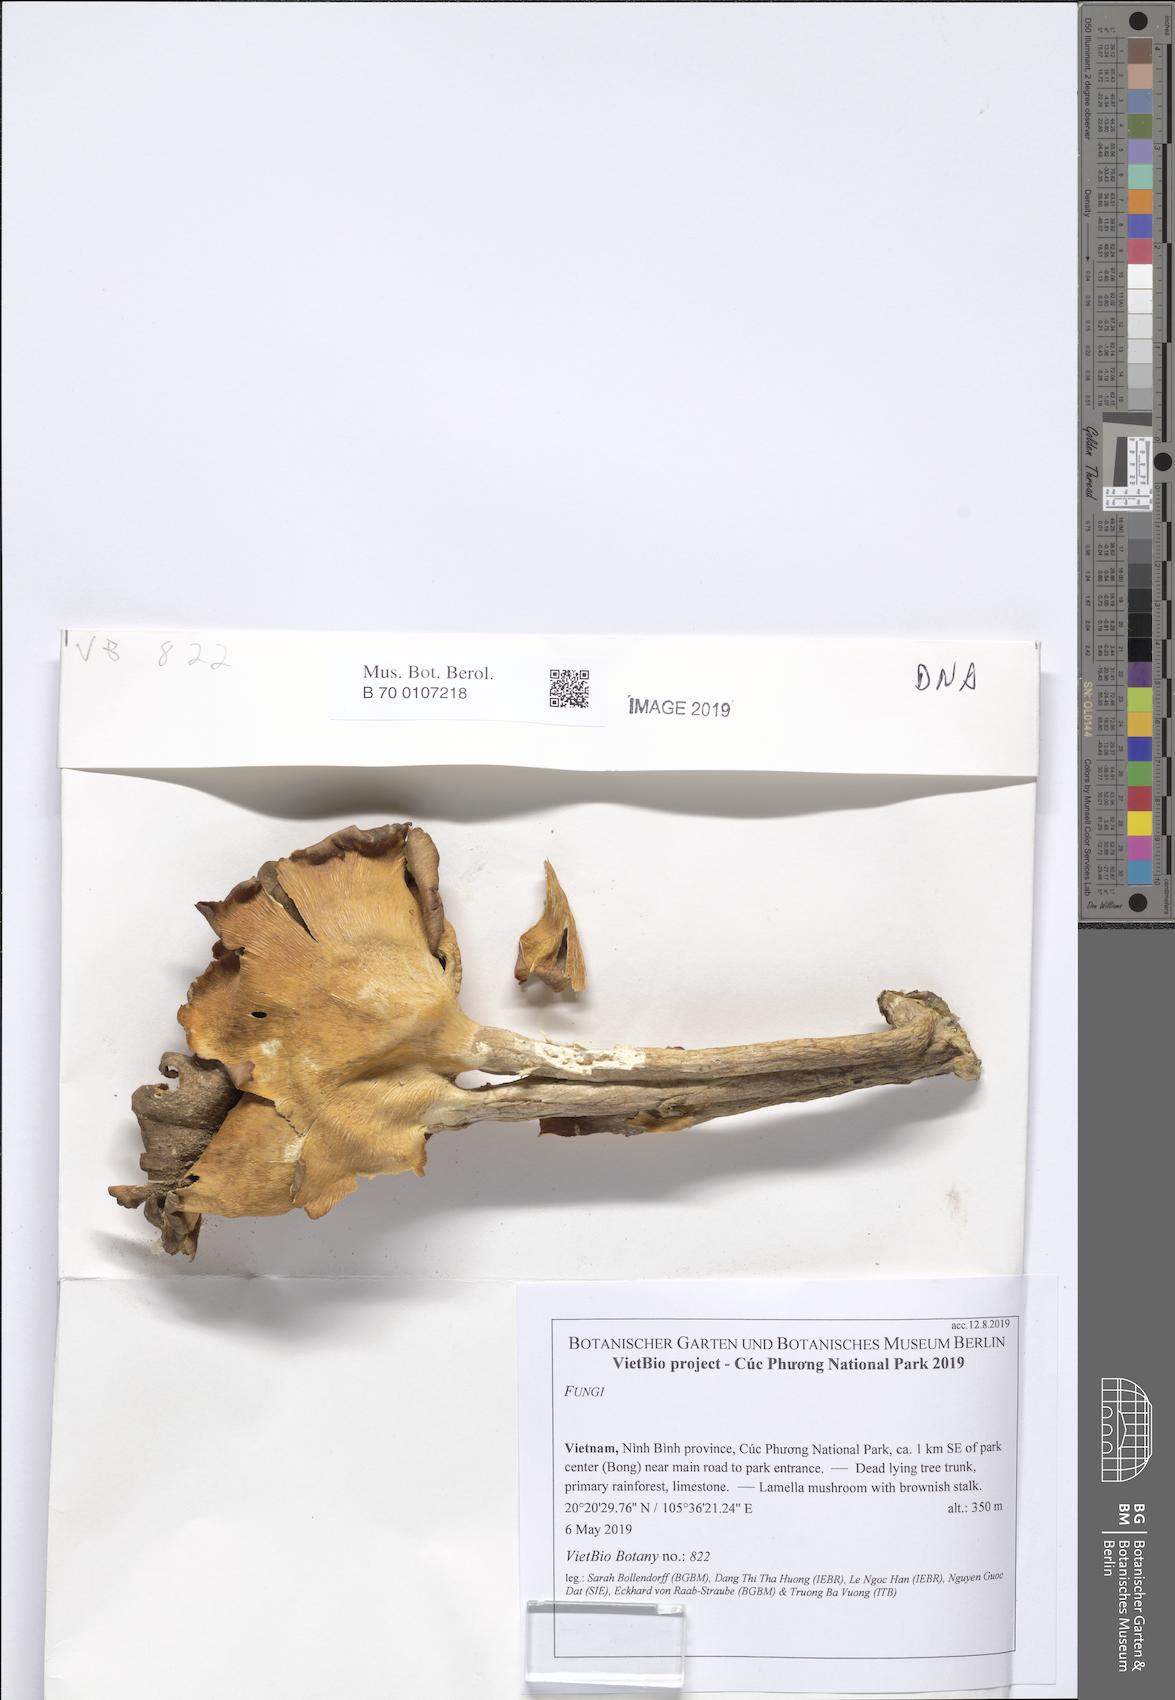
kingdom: Fungi
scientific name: Fungi
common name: Fungi
